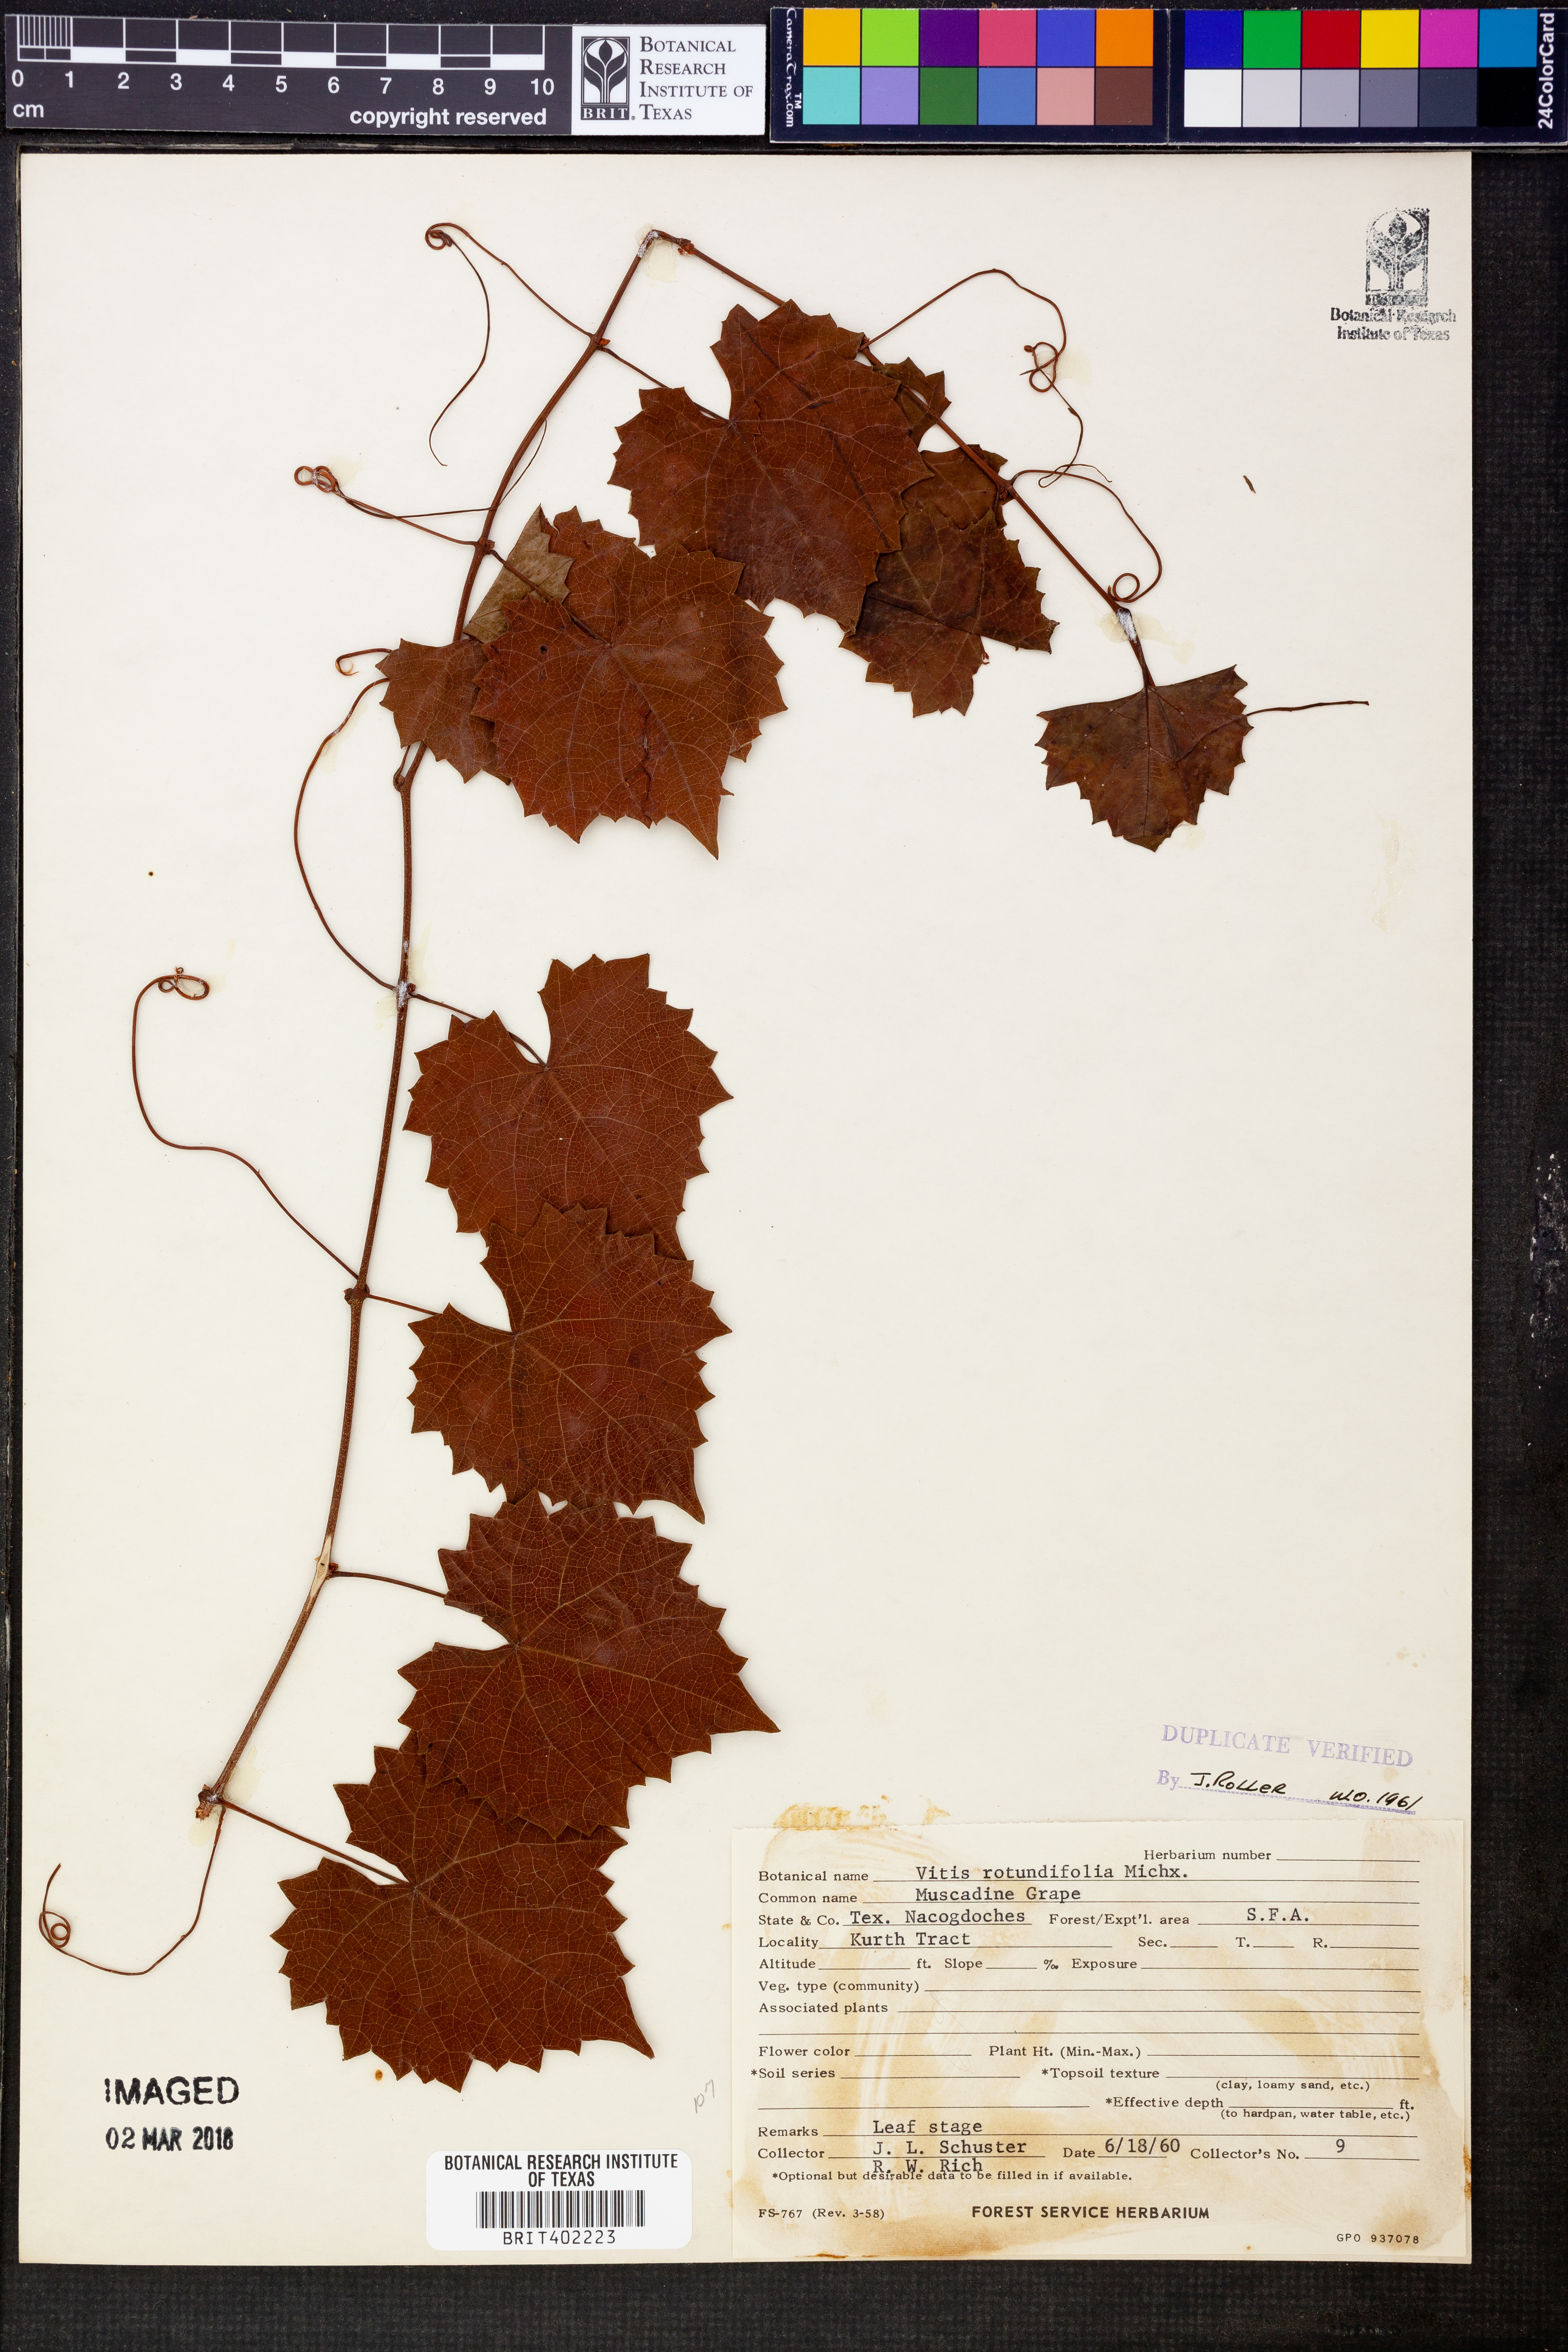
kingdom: Plantae
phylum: Tracheophyta
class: Magnoliopsida
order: Vitales
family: Vitaceae
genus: Vitis
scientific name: Vitis rotundifolia
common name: Muscadine grape
